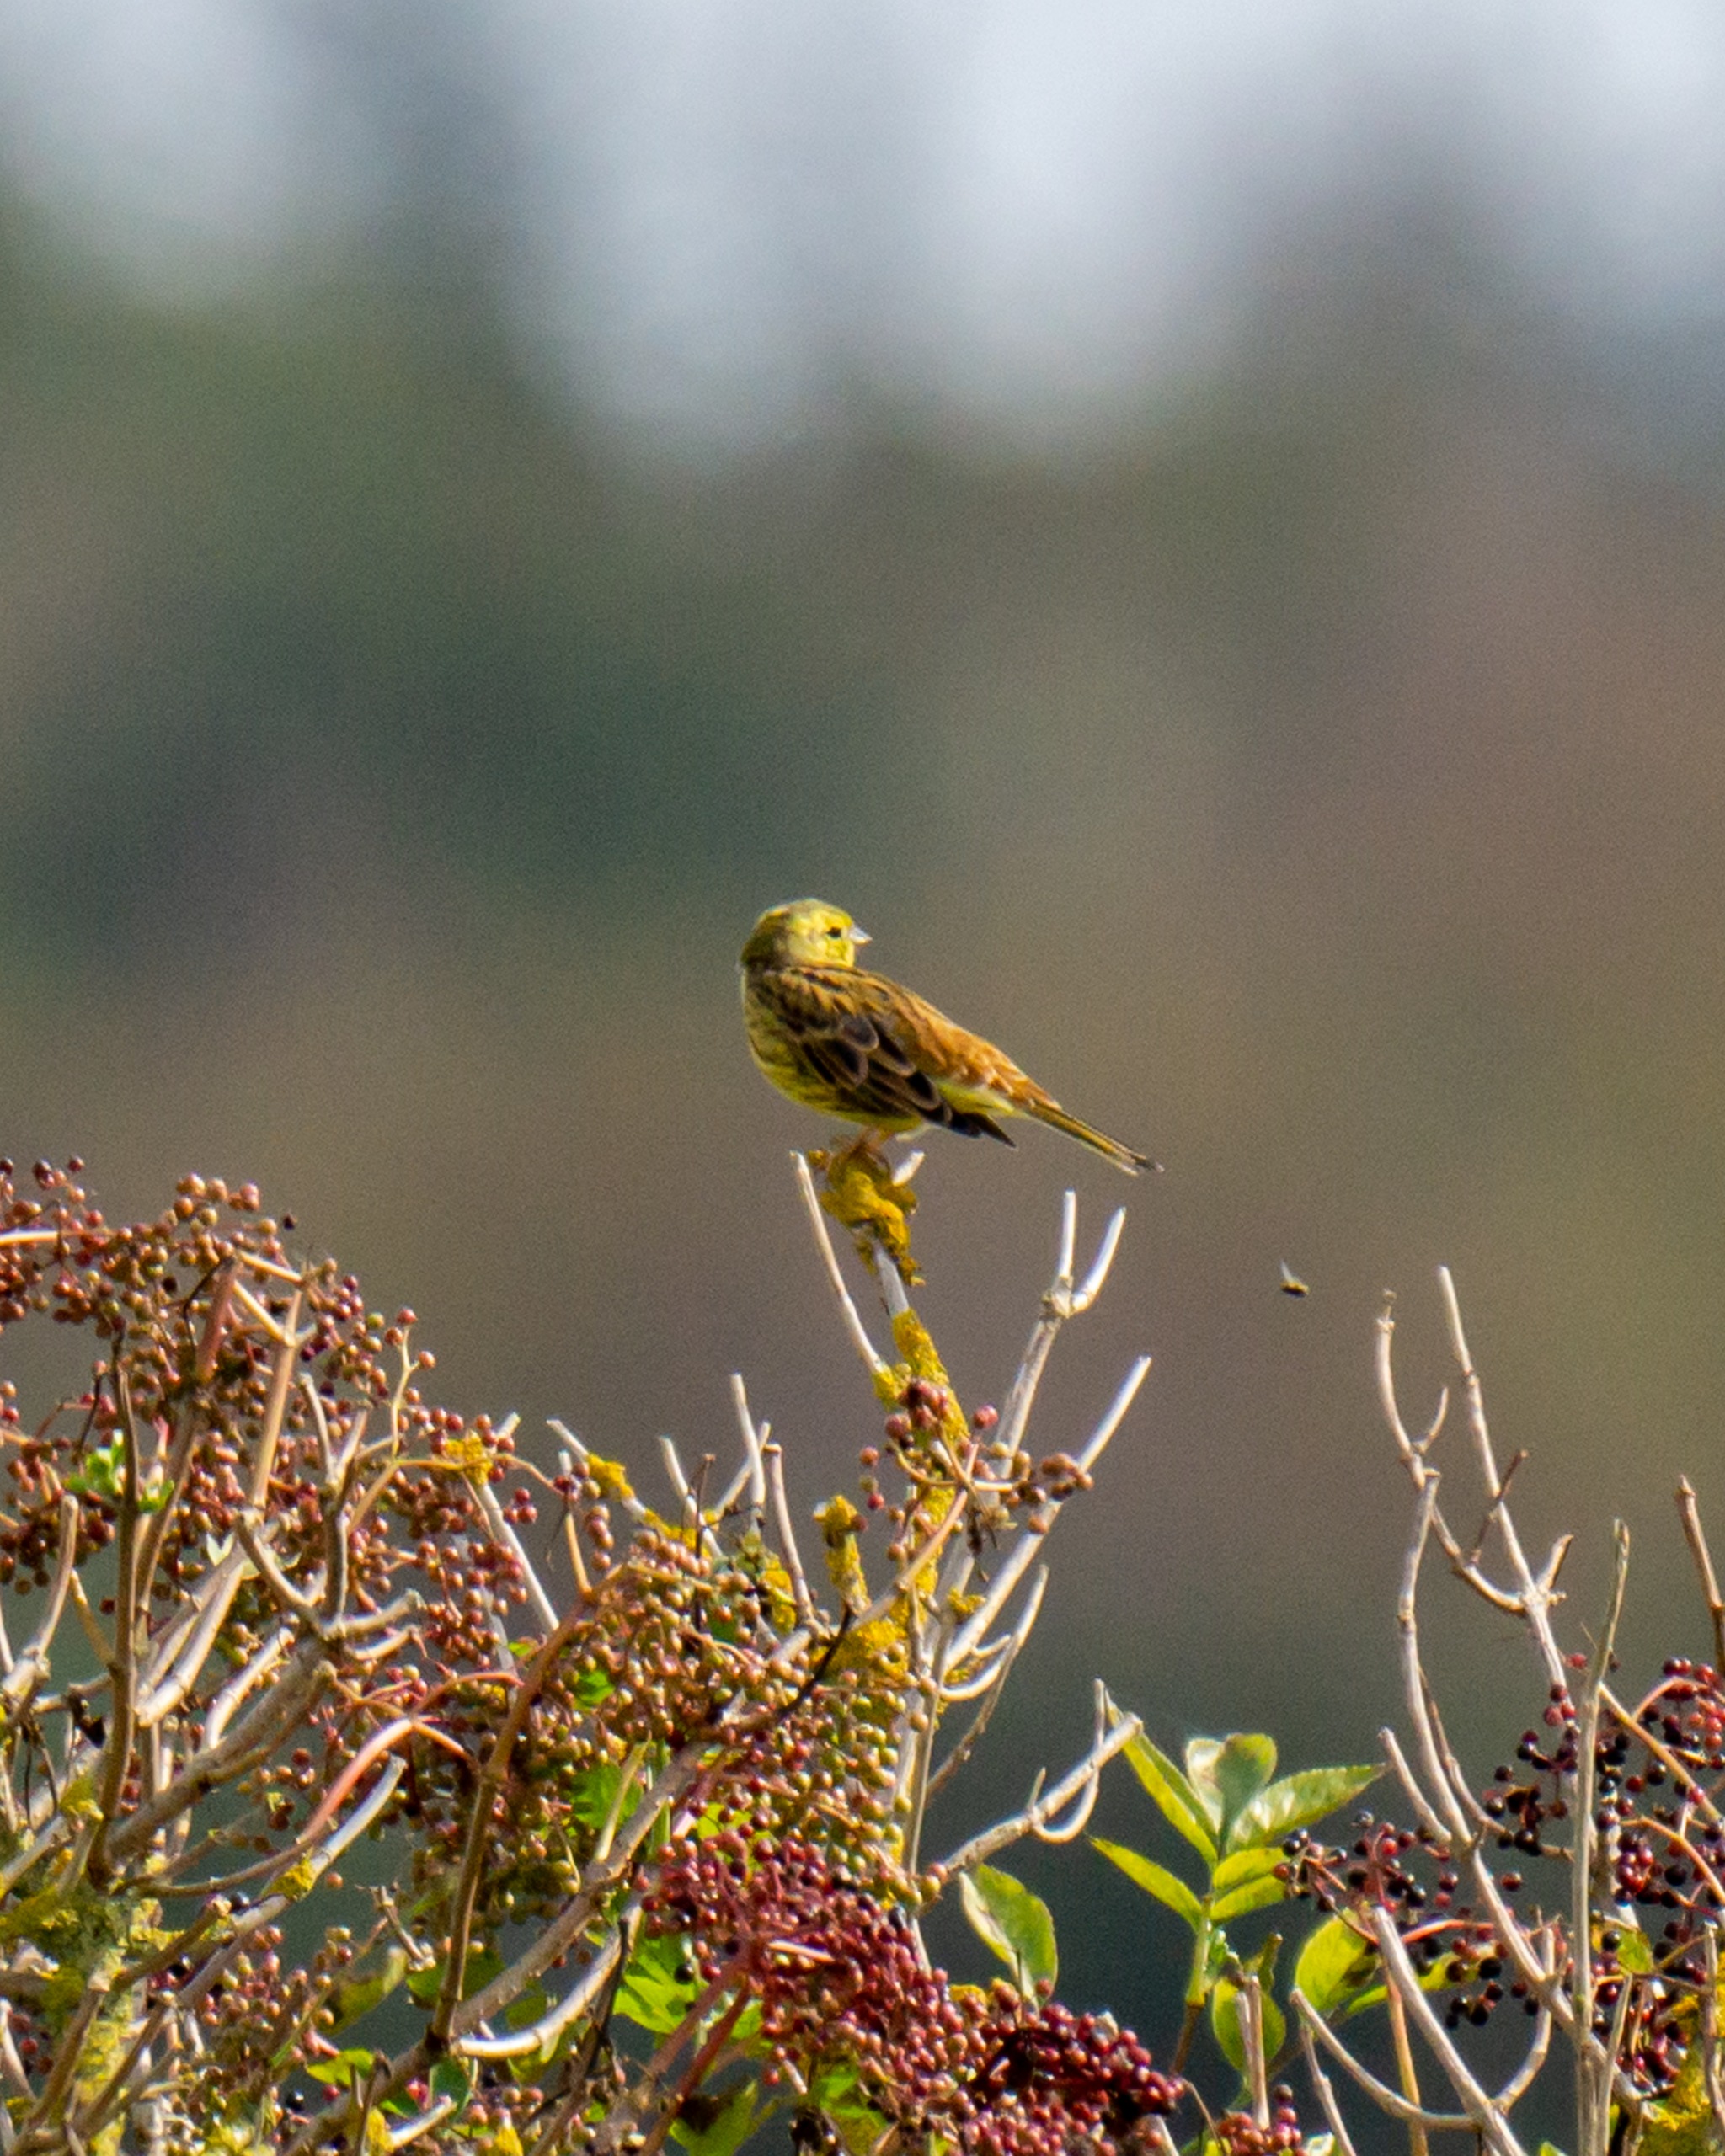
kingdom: Animalia
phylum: Chordata
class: Aves
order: Passeriformes
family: Emberizidae
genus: Emberiza
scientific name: Emberiza citrinella
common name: Gulspurv
